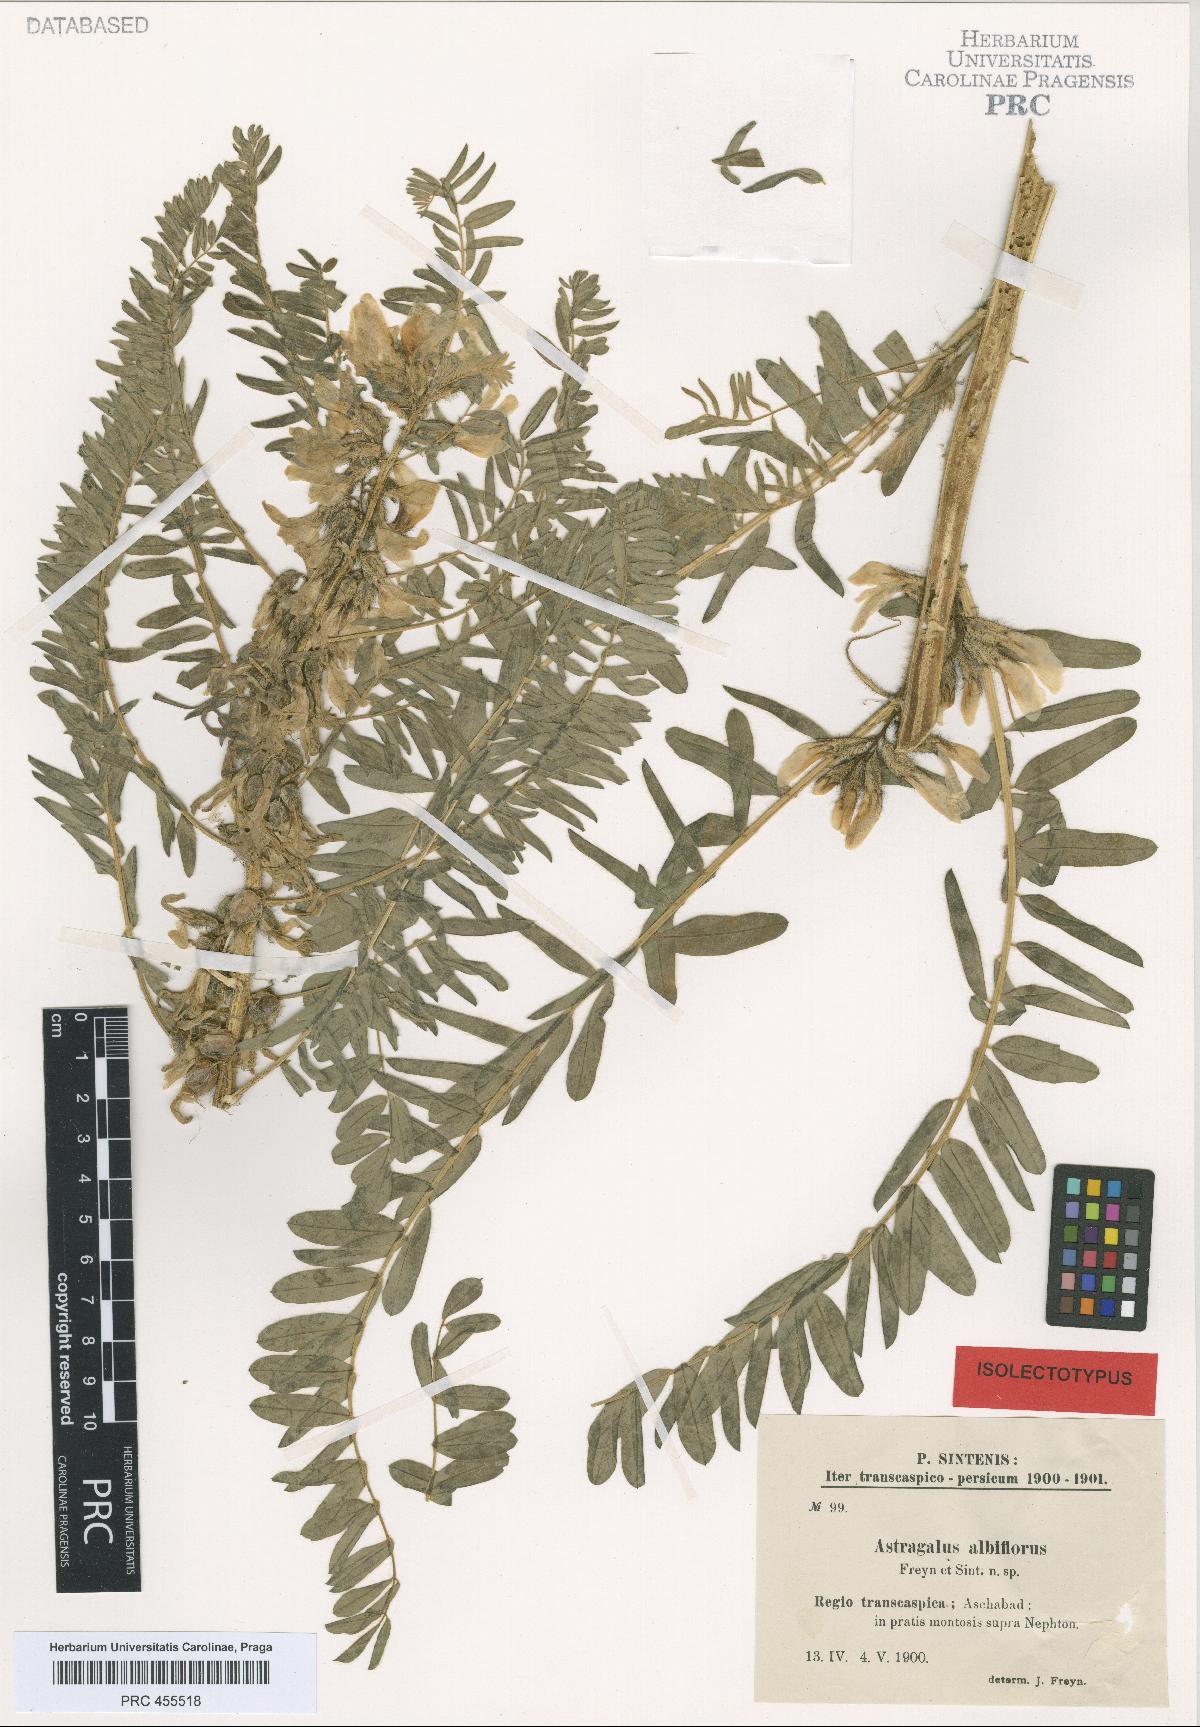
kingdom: Plantae
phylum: Tracheophyta
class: Magnoliopsida
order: Fabales
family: Fabaceae
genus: Astragalus
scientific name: Astragalus retamocarpus
